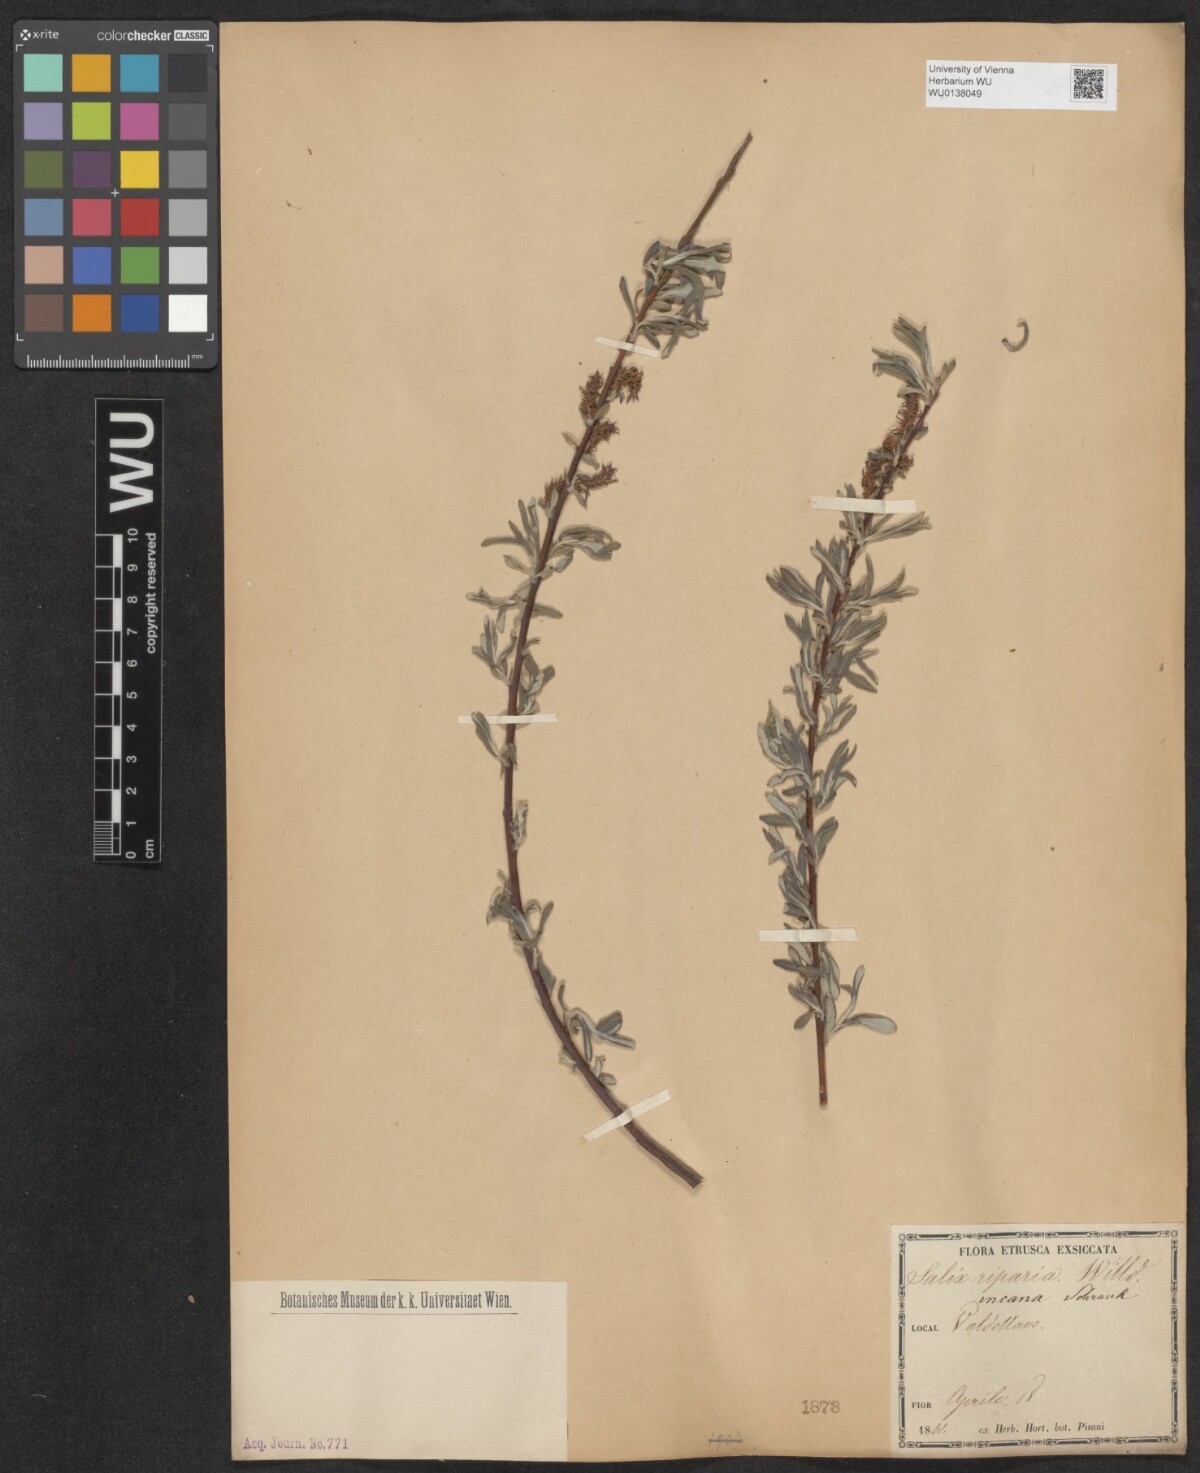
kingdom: Plantae
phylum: Tracheophyta
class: Magnoliopsida
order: Malpighiales
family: Salicaceae
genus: Salix
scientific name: Salix eleagnos
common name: Elaeagnus willow
